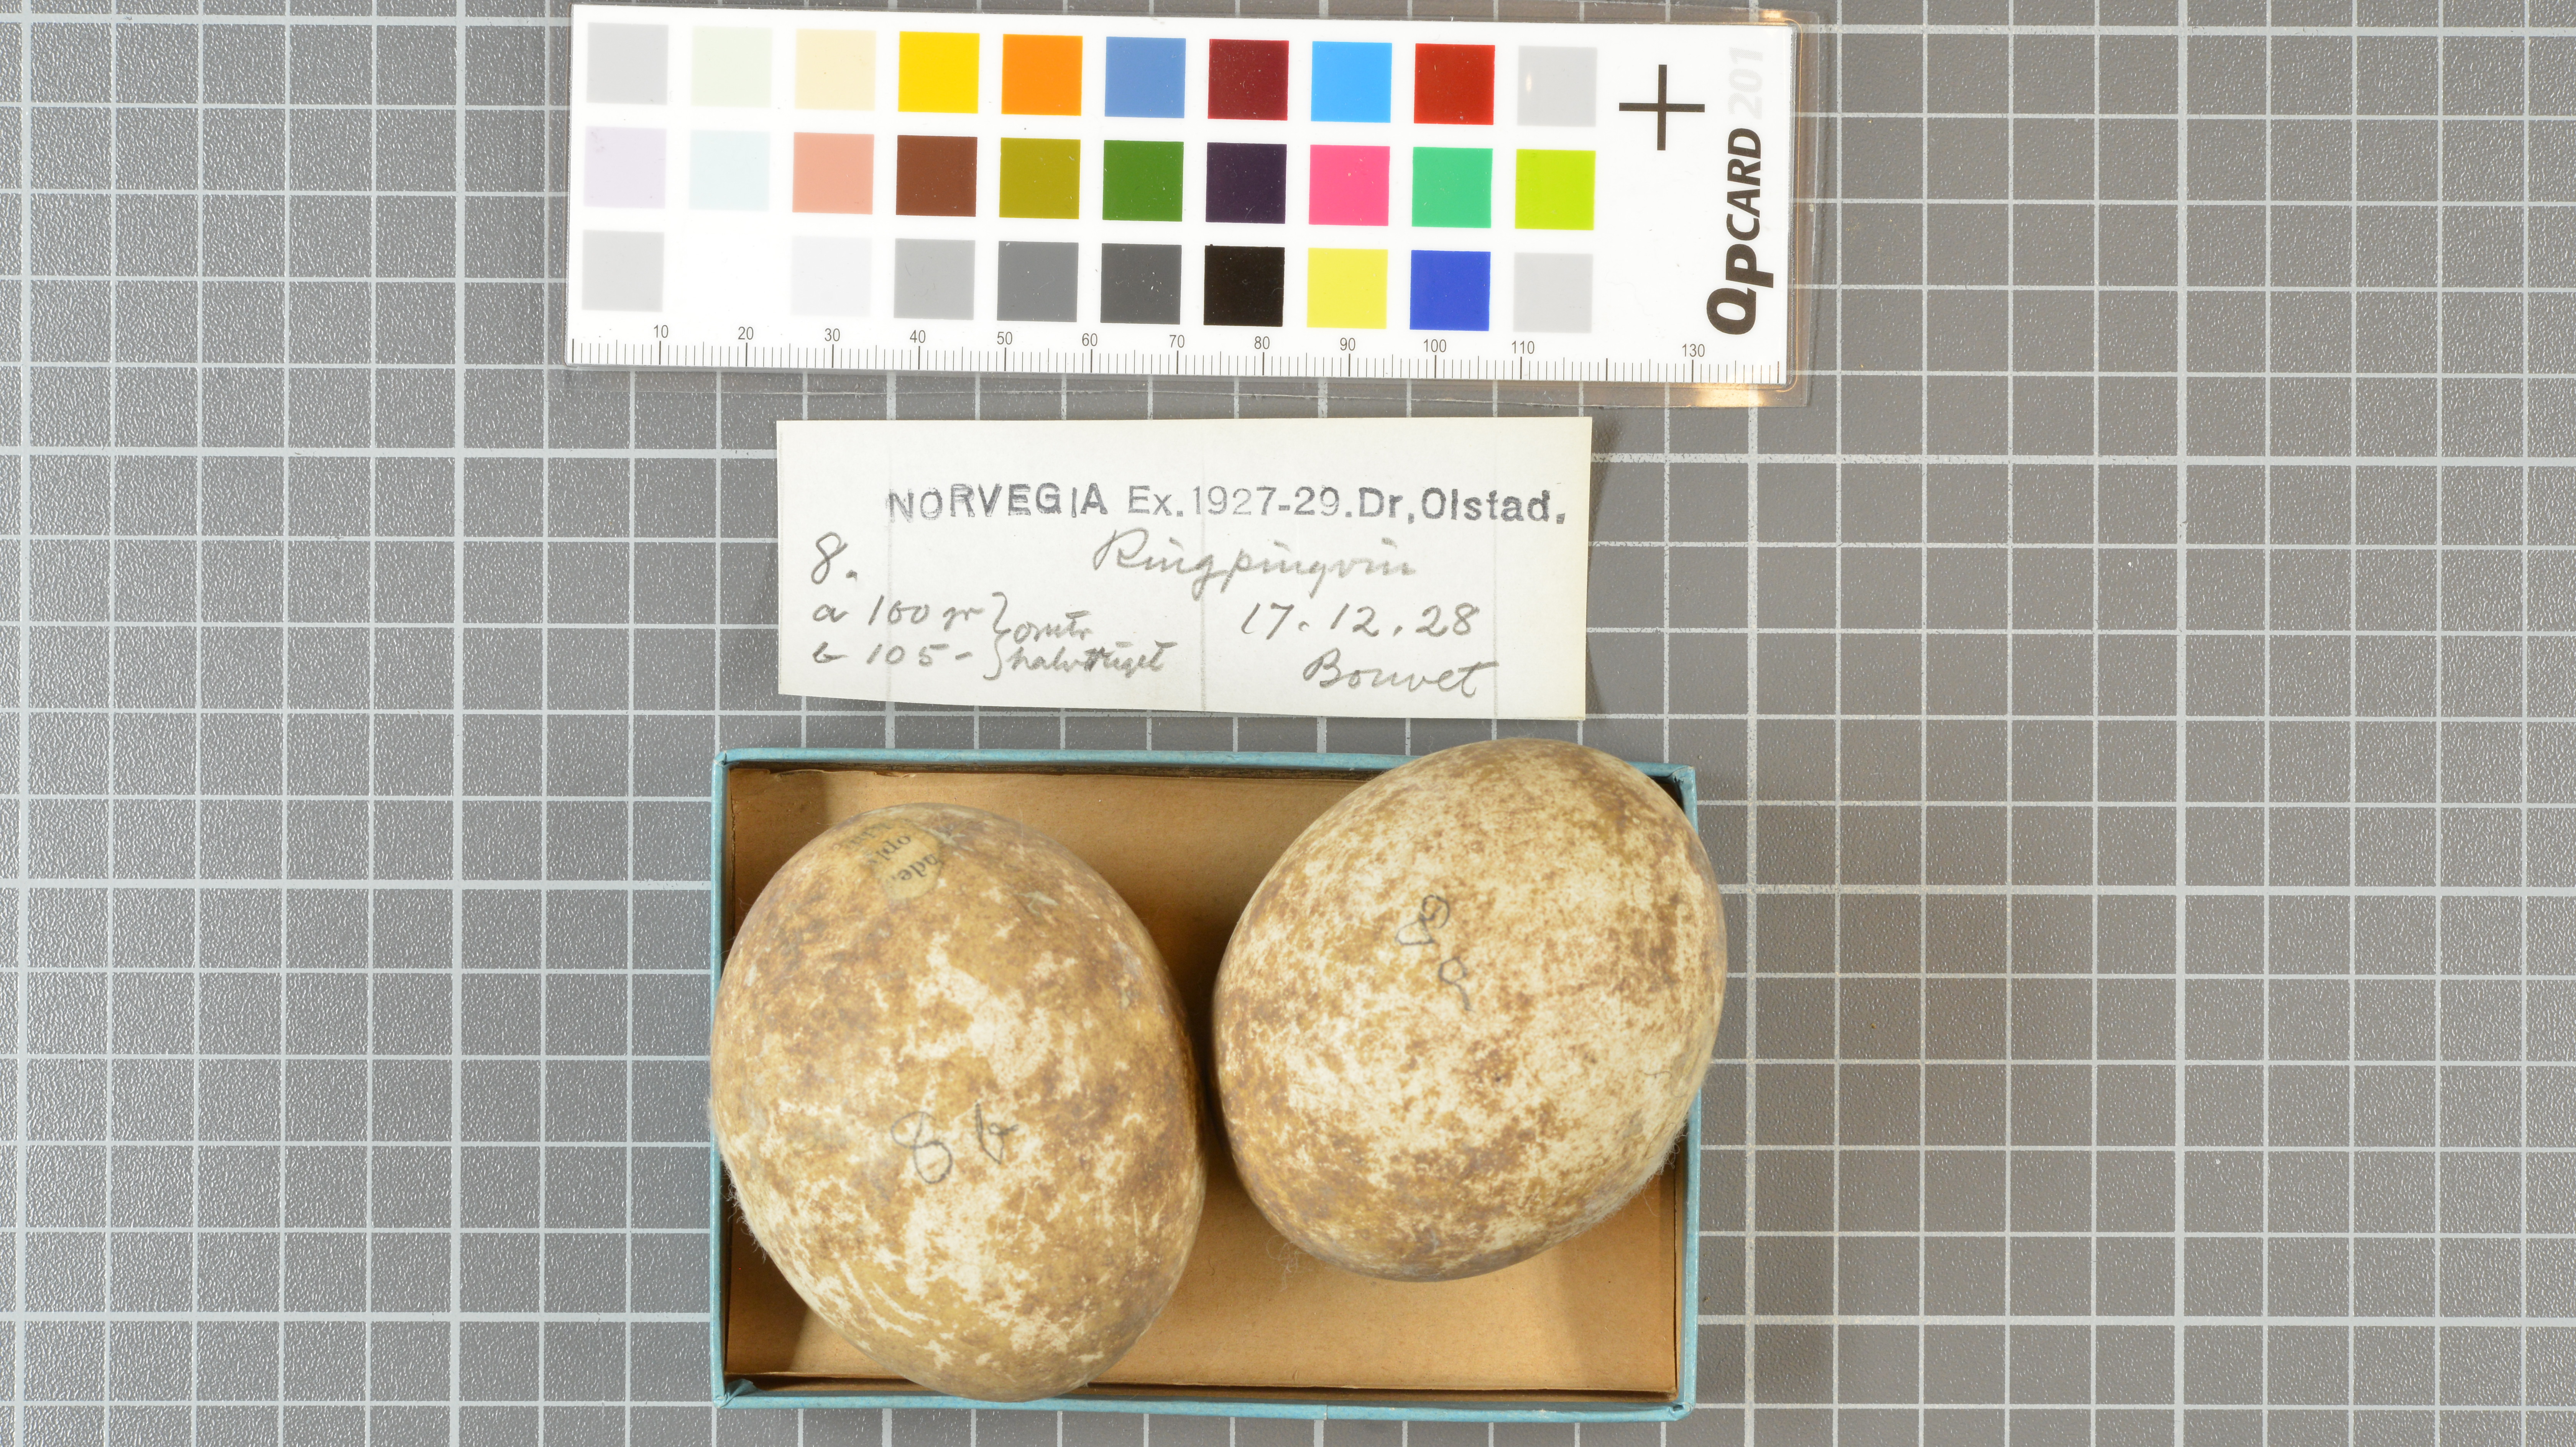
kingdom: Animalia
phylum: Chordata
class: Aves
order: Sphenisciformes
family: Spheniscidae
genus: Pygoscelis
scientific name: Pygoscelis antarcticus
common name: Chinstrap penguin
